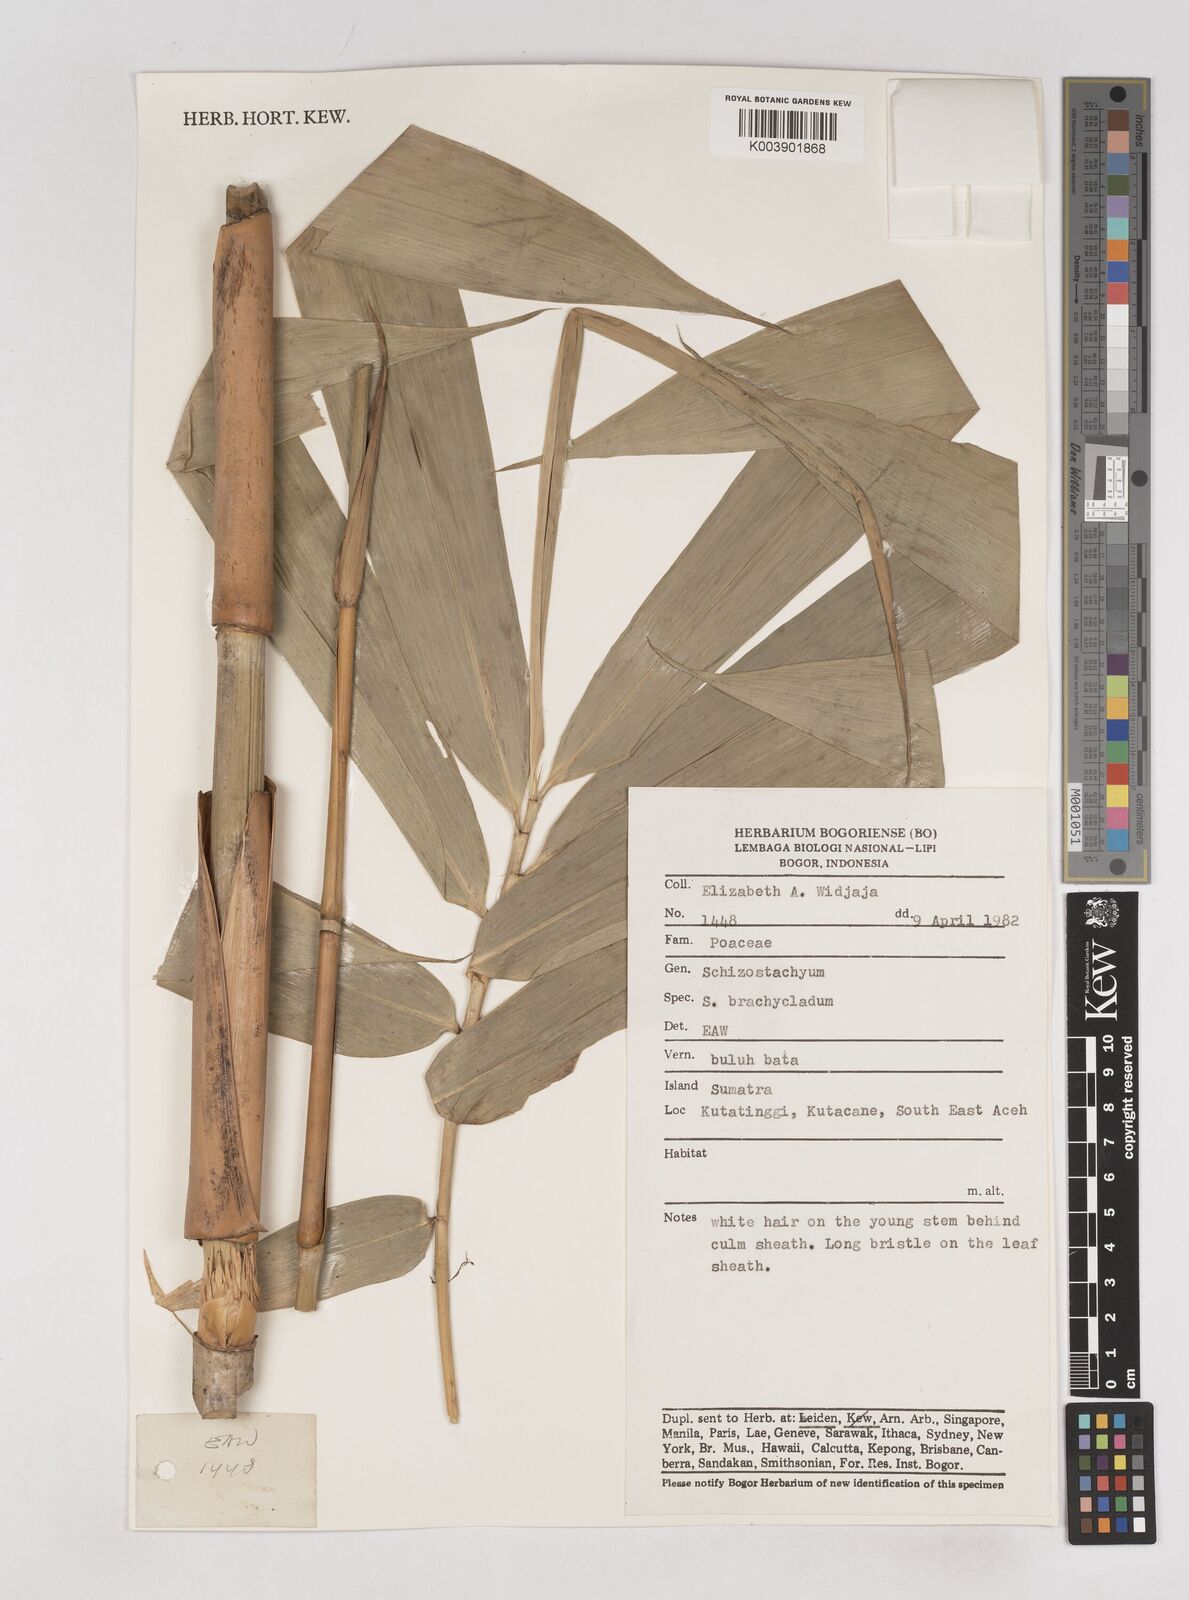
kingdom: Plantae
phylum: Tracheophyta
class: Liliopsida
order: Poales
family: Poaceae
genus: Schizostachyum
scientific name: Schizostachyum brachycladum
